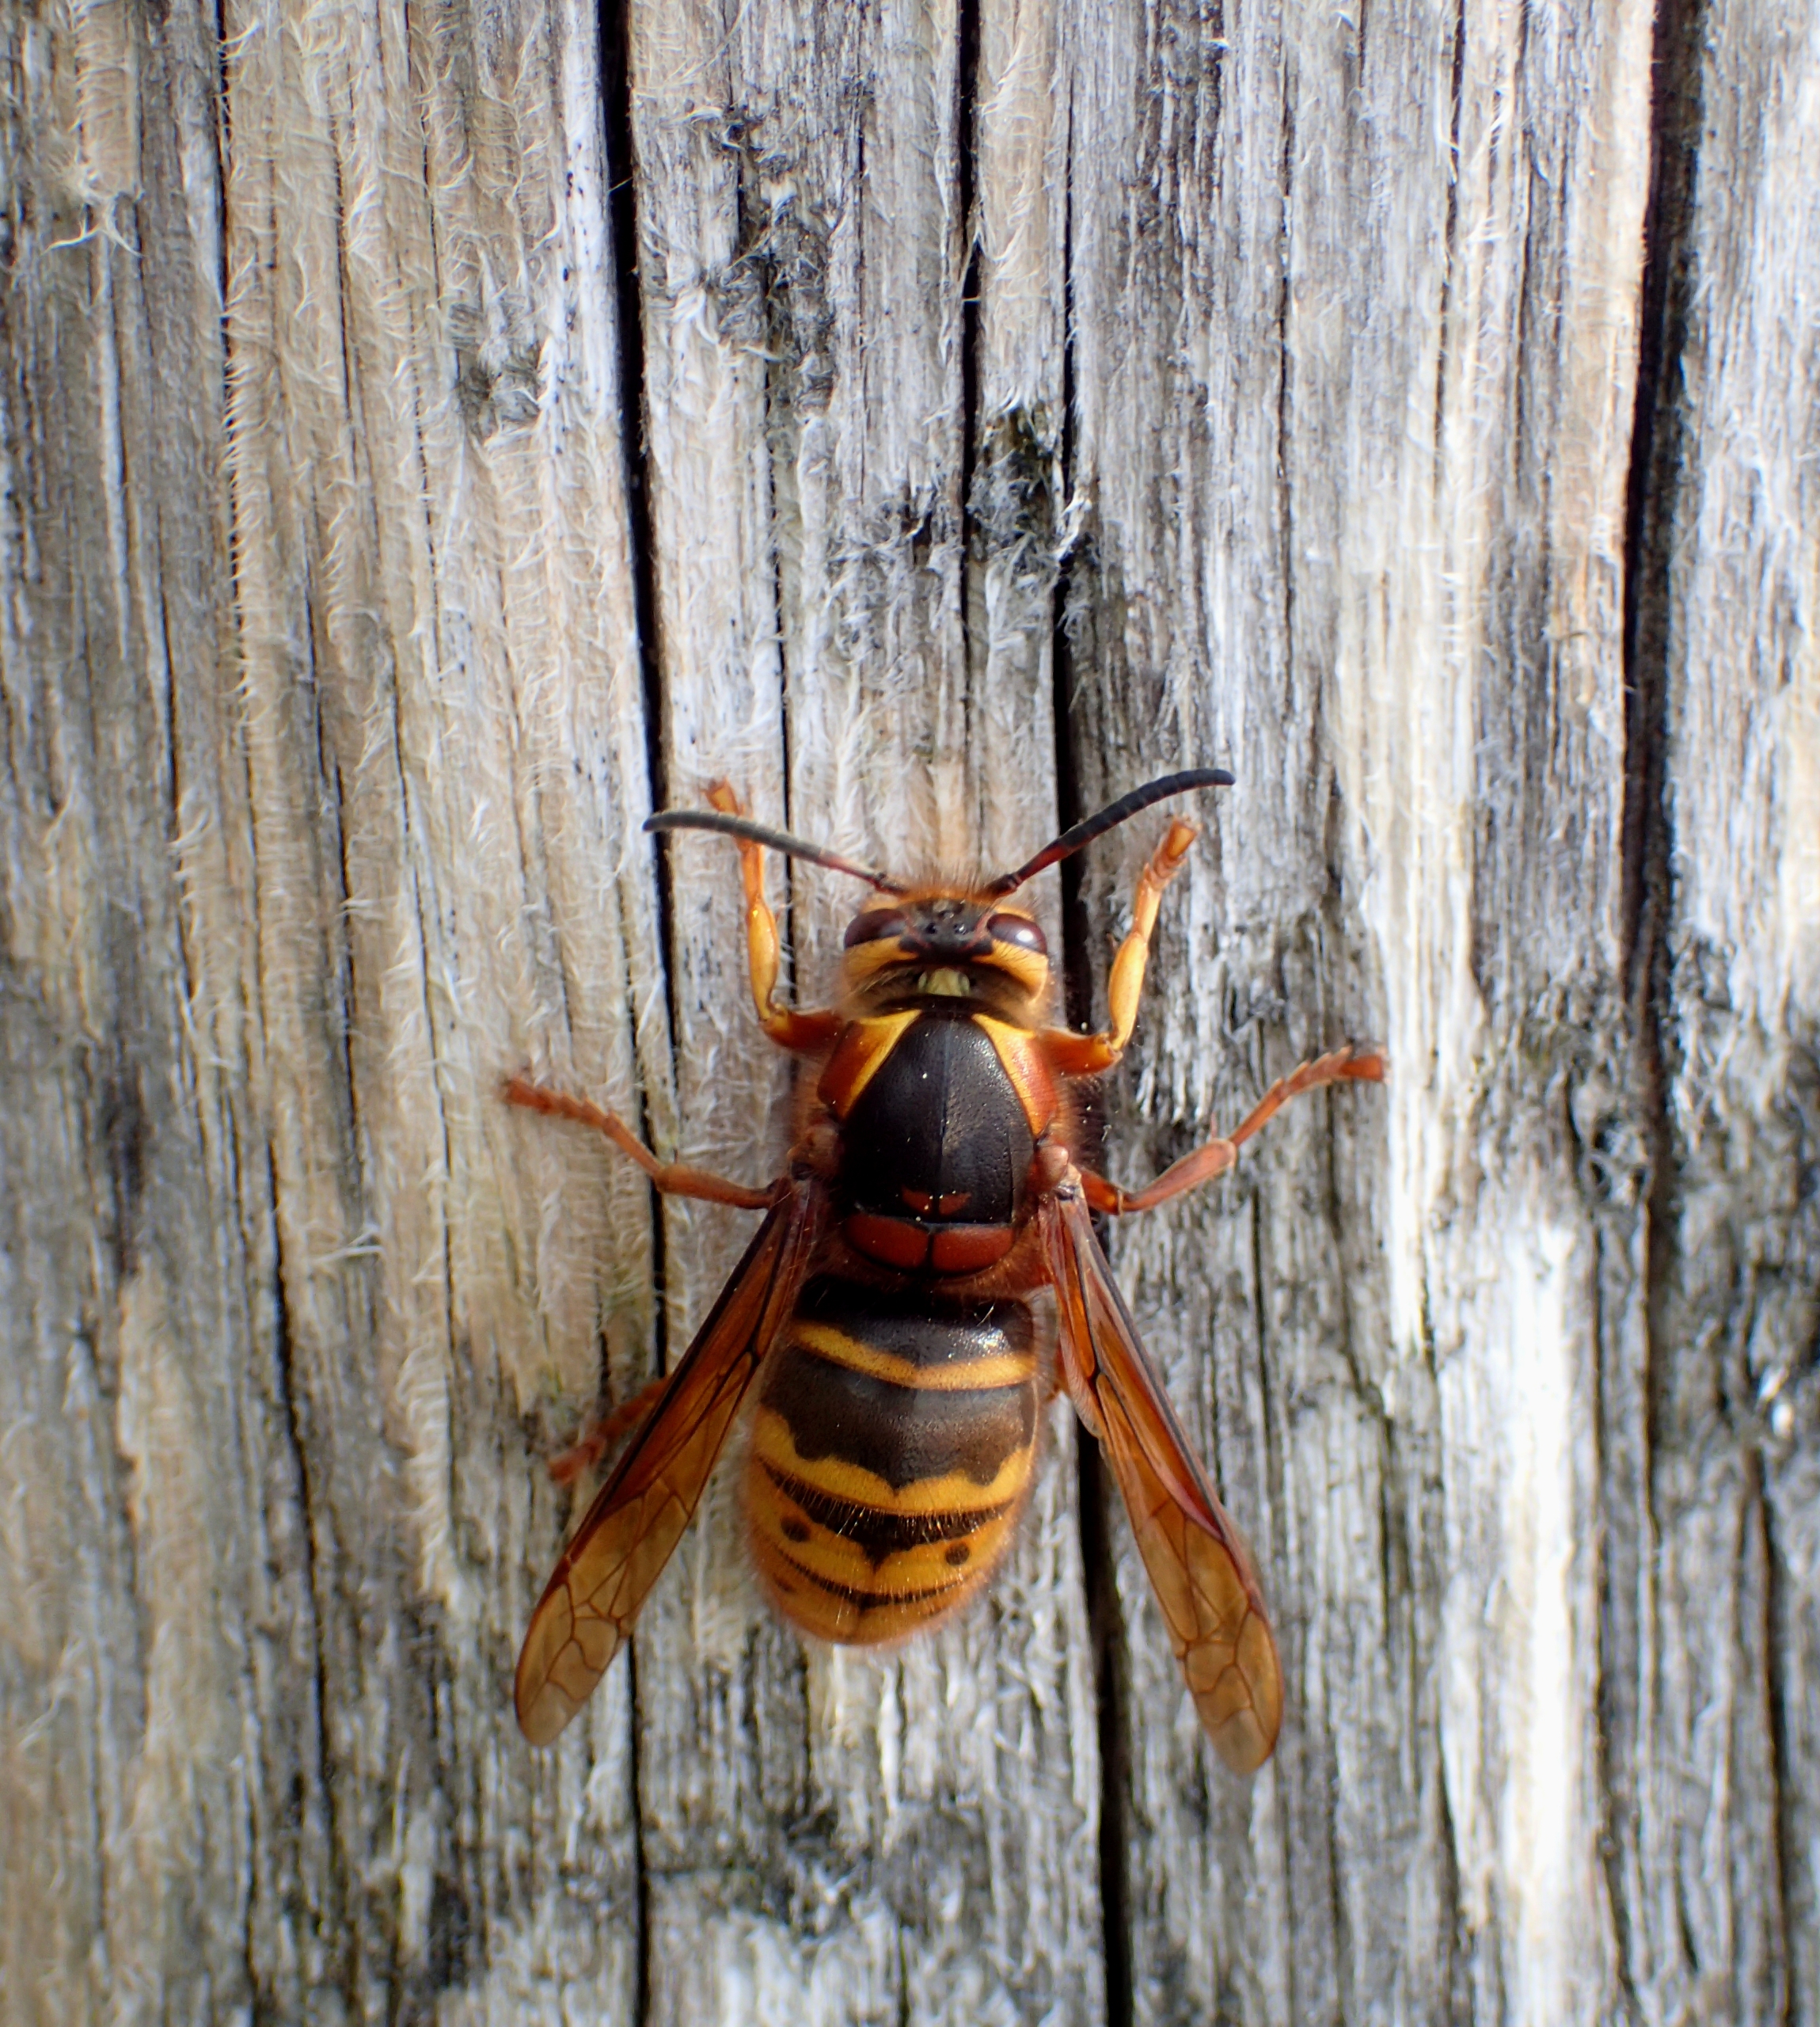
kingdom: Animalia
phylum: Arthropoda
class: Insecta
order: Hymenoptera
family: Vespidae
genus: Vespa
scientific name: Vespa crabro
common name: Stor gedehams
